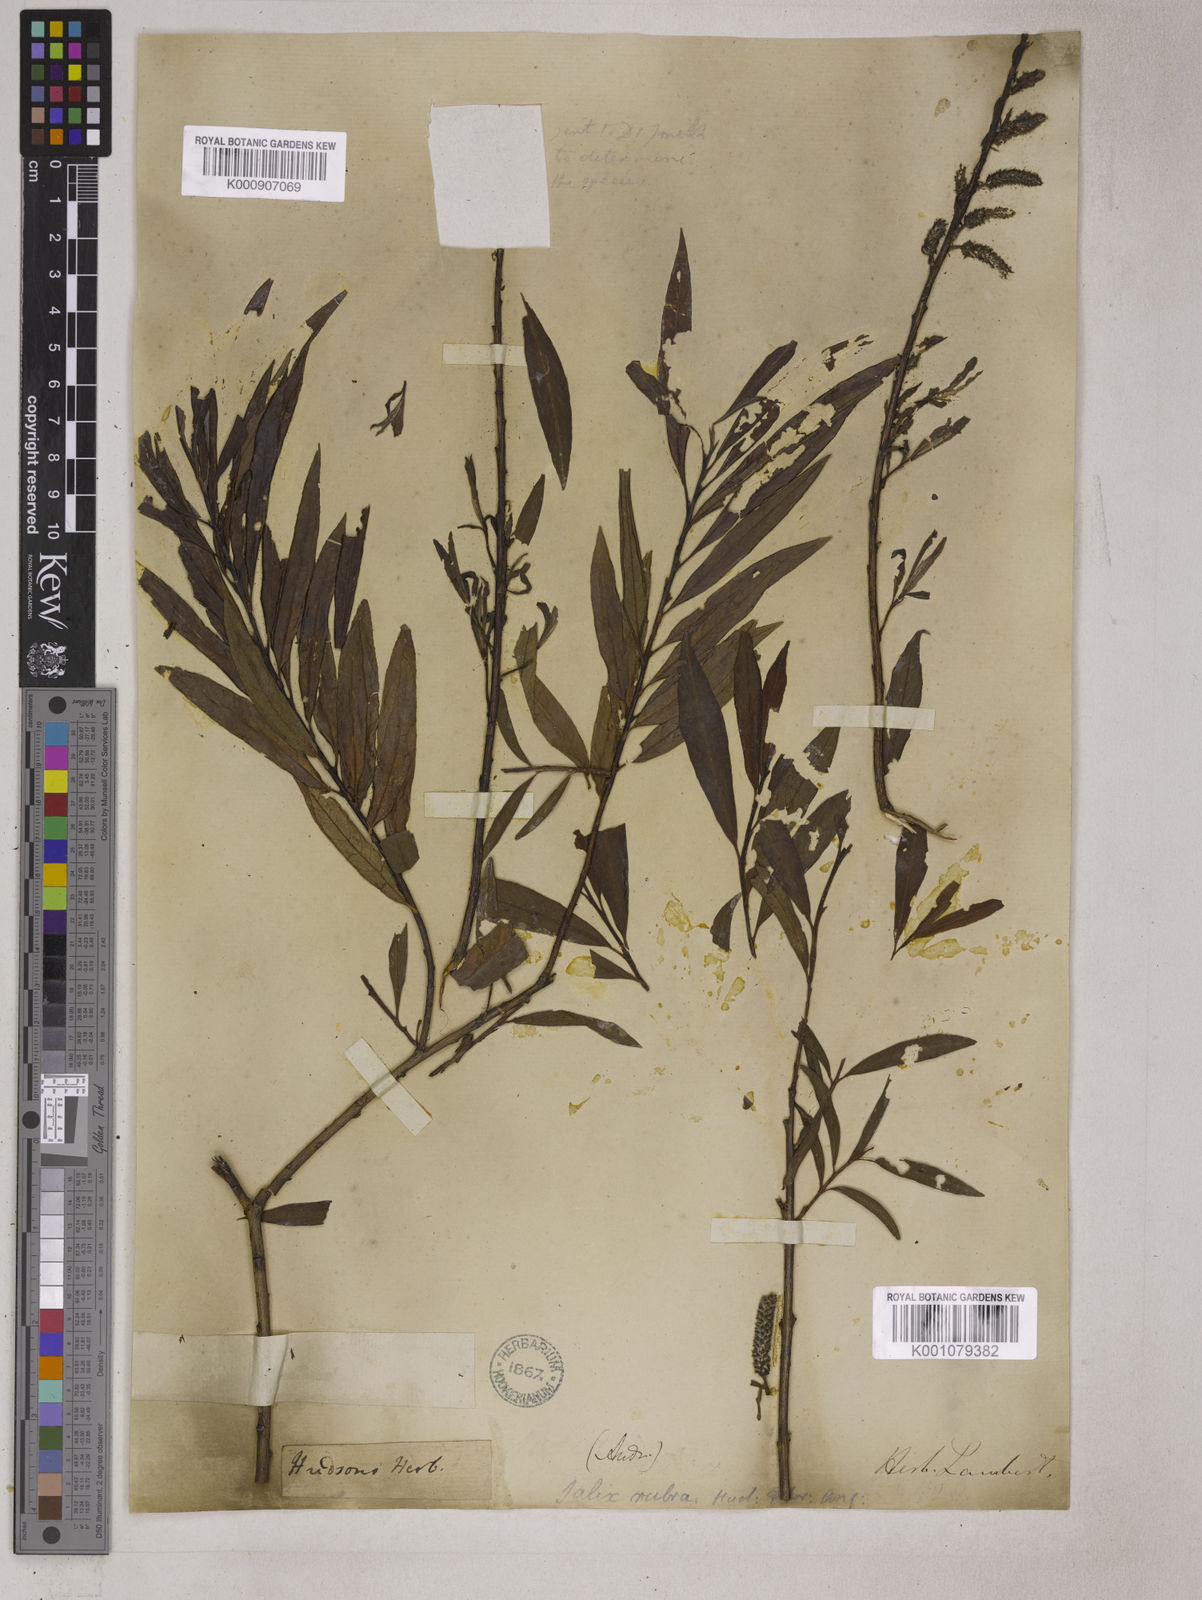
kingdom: Plantae
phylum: Tracheophyta
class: Magnoliopsida
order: Malpighiales
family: Salicaceae
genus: Salix
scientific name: Salix purpurea
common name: Purple willow
